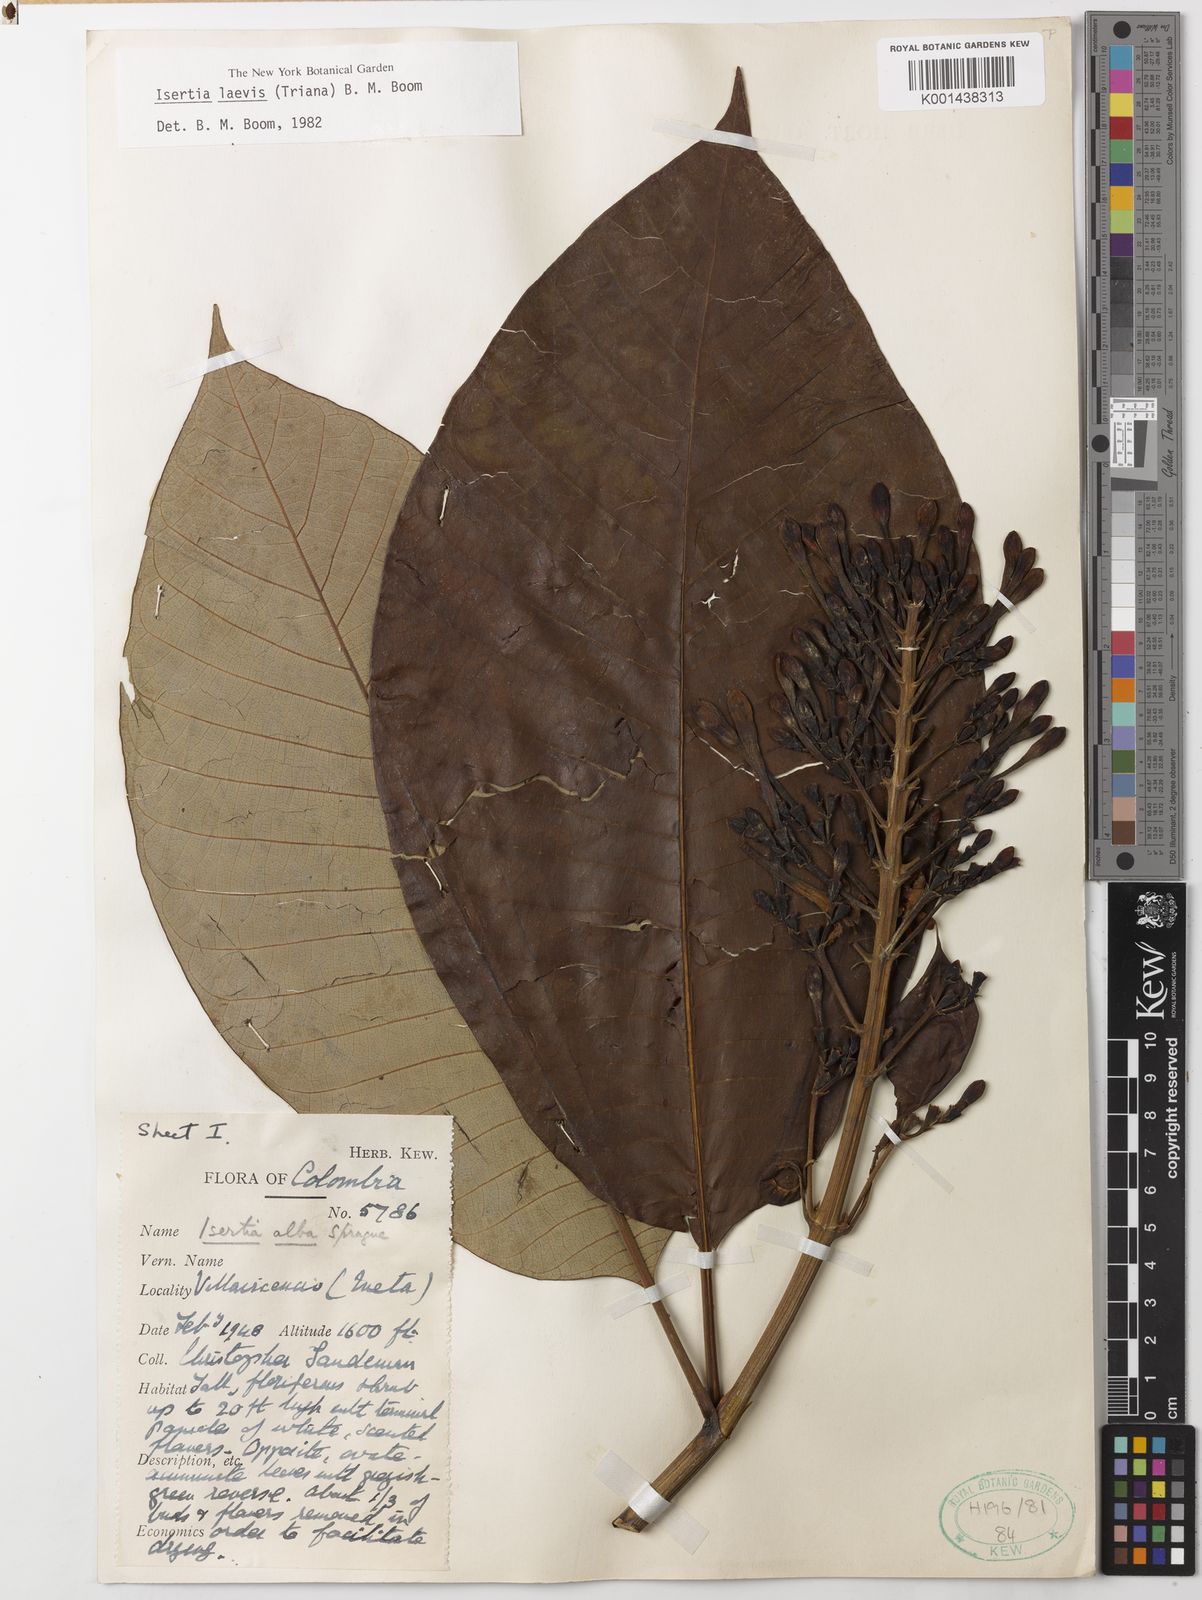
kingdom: Plantae
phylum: Tracheophyta
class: Magnoliopsida
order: Gentianales
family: Rubiaceae
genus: Isertia
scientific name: Isertia laevis
